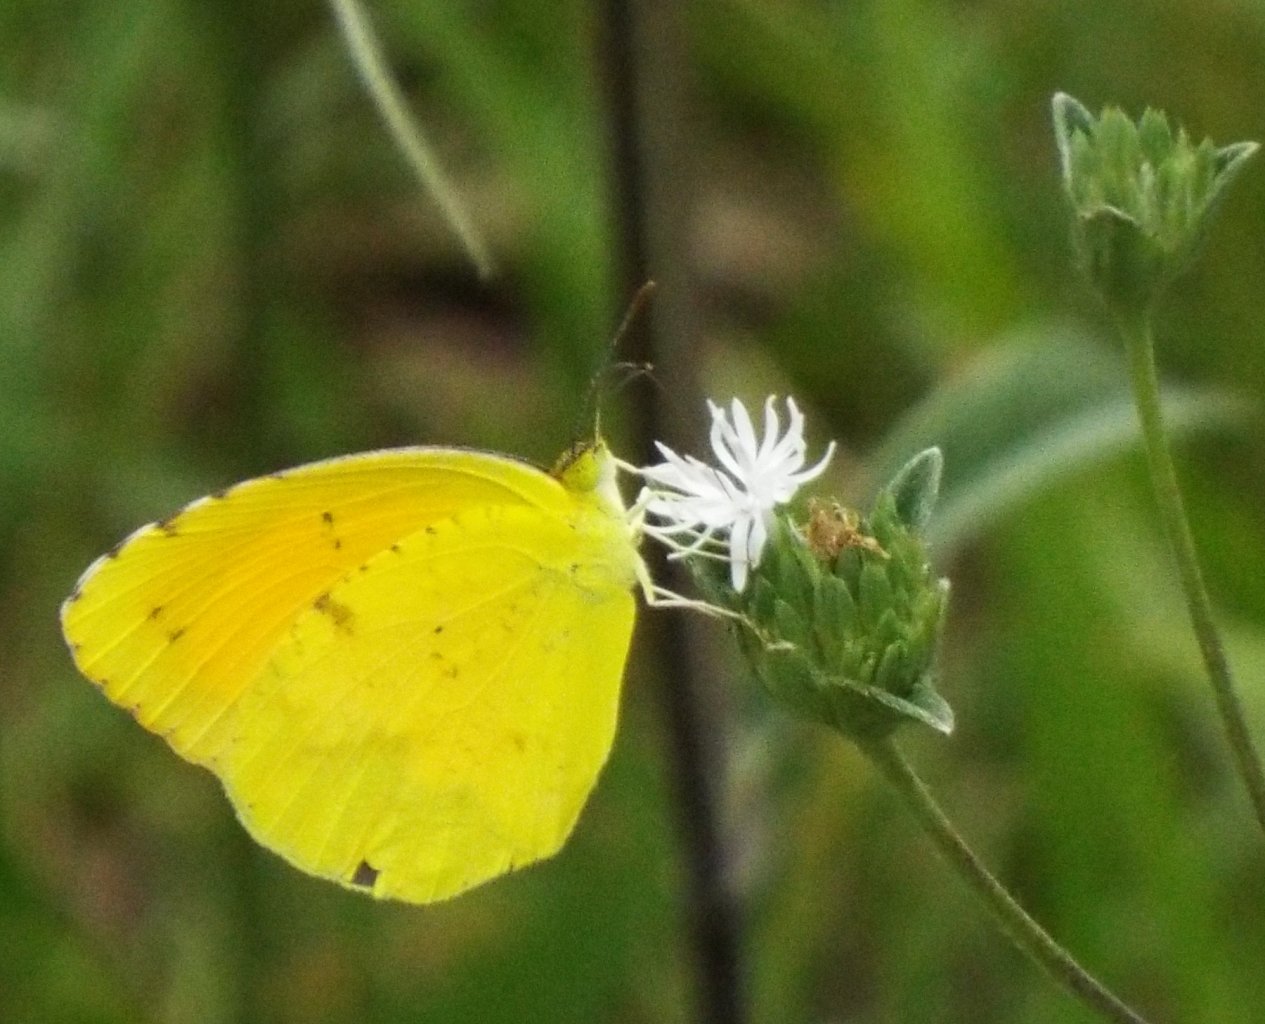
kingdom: Animalia
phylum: Arthropoda
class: Insecta
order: Lepidoptera
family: Pieridae
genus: Abaeis
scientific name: Abaeis nicippe
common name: Sleepy Orange
